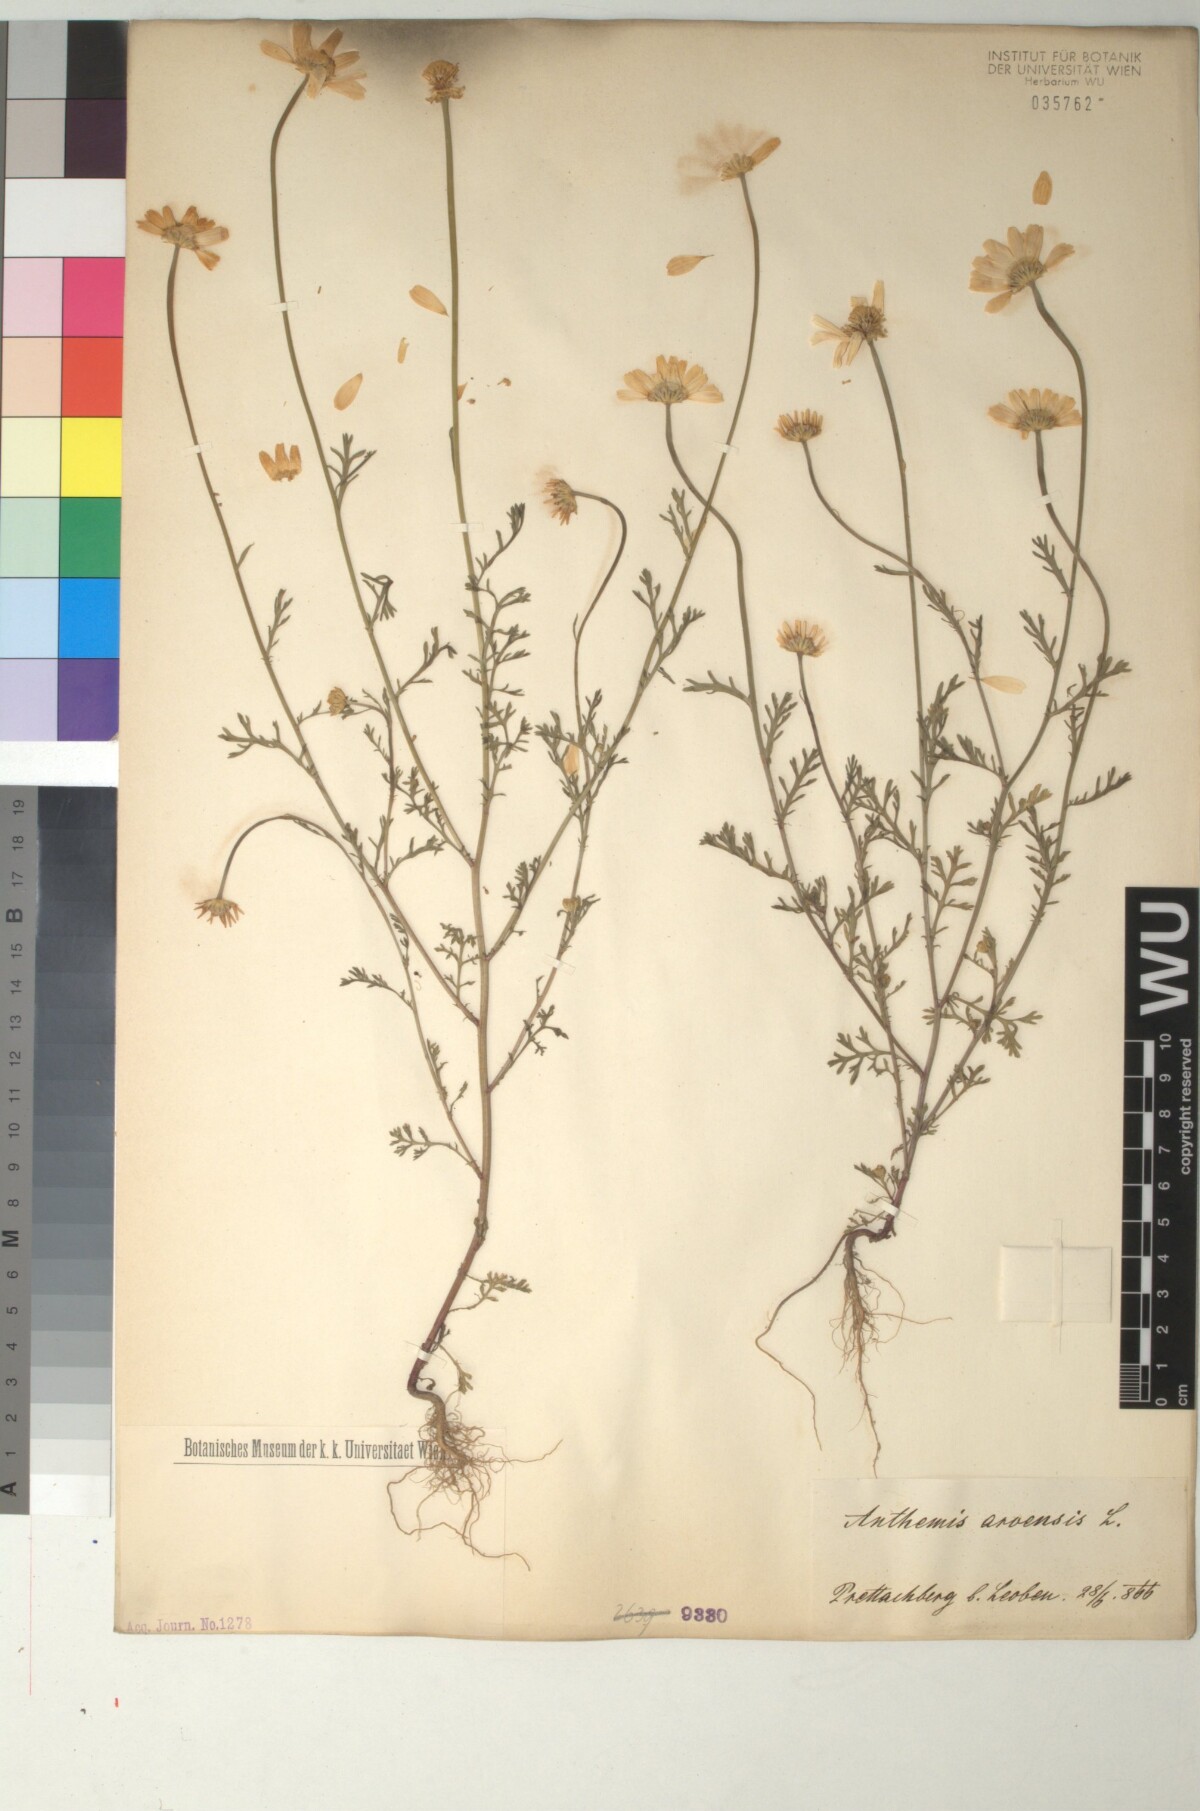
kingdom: Plantae
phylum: Tracheophyta
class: Magnoliopsida
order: Asterales
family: Asteraceae
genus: Anthemis
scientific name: Anthemis arvensis
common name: Corn chamomile
